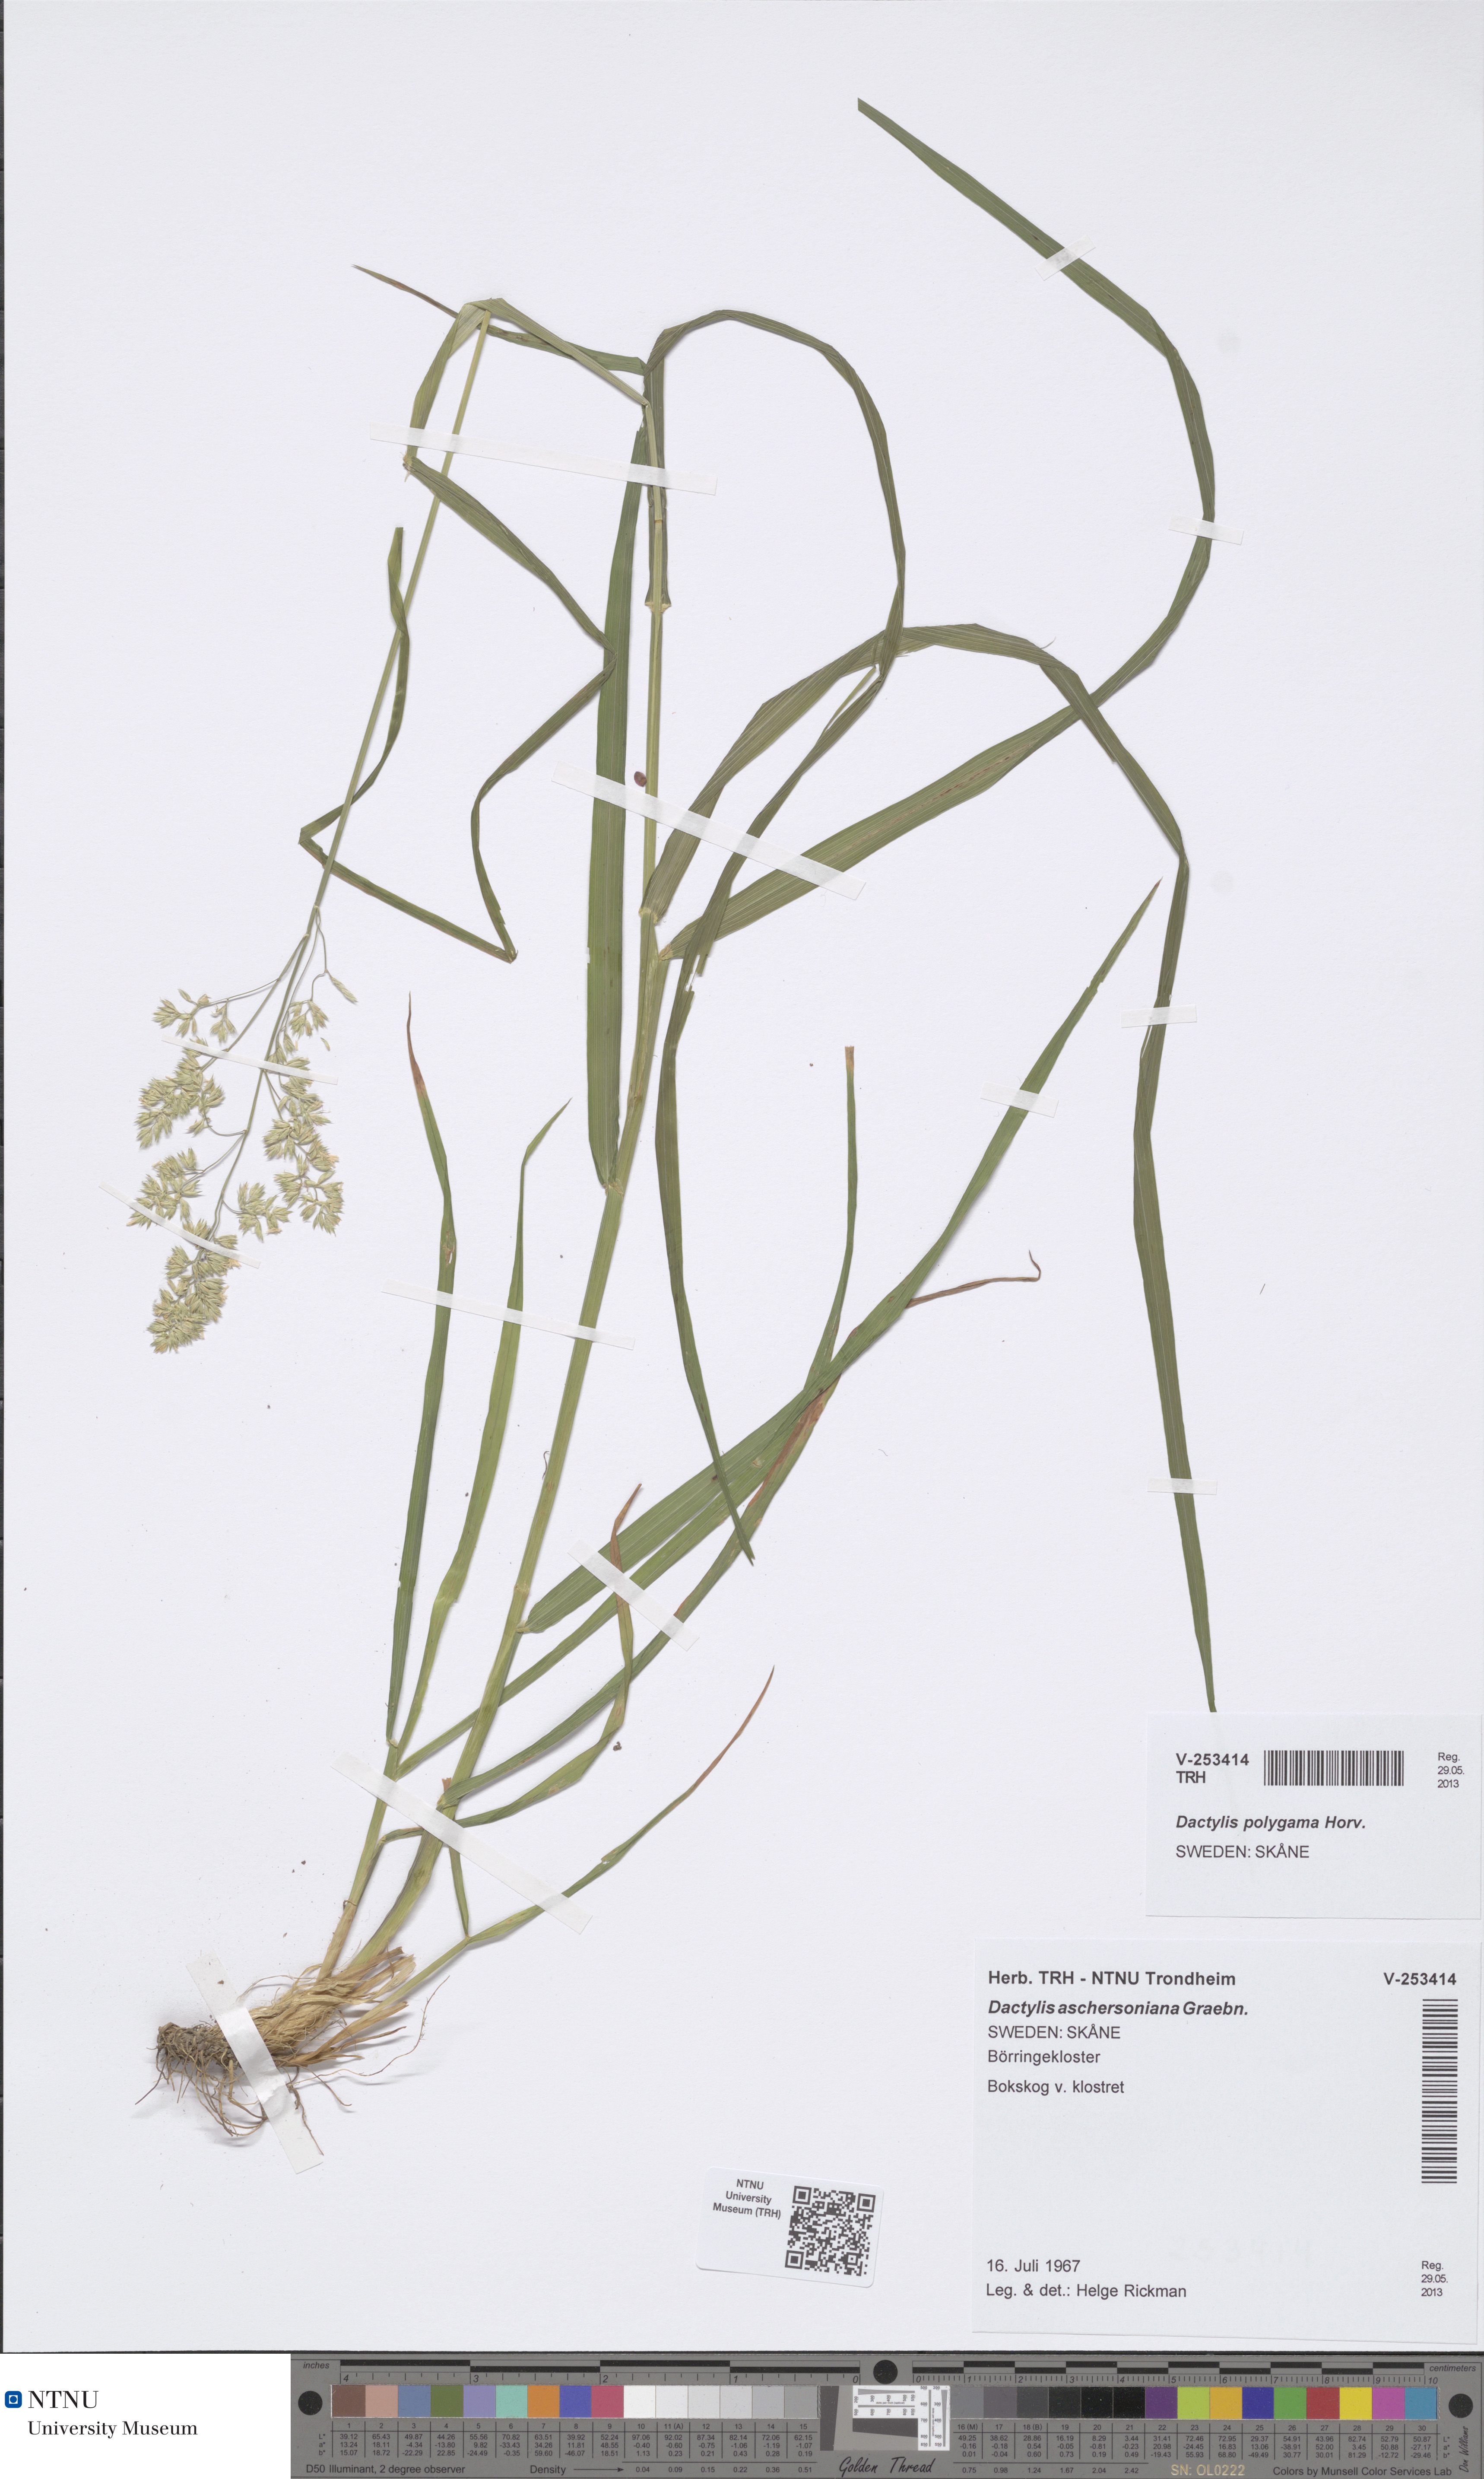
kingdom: Plantae
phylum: Tracheophyta
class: Liliopsida
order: Poales
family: Poaceae
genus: Dactylis
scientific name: Dactylis glomerata
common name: Orchardgrass
